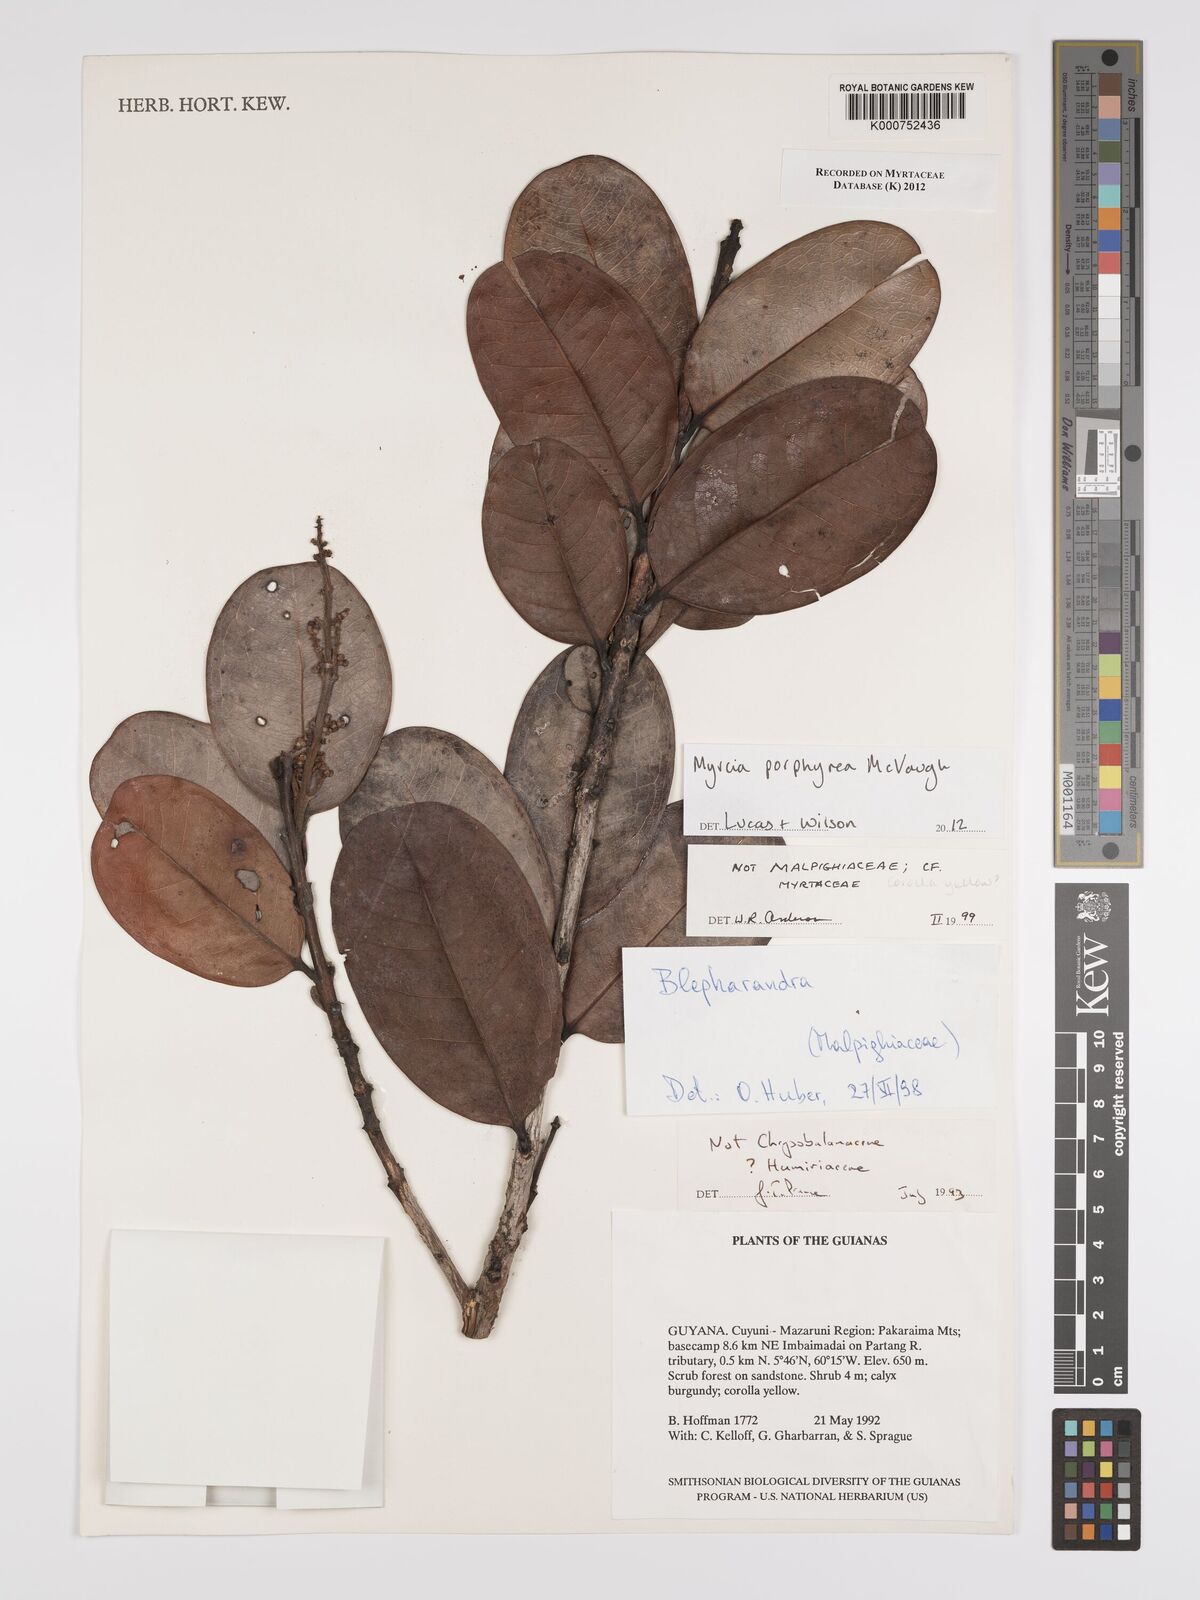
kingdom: Plantae
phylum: Tracheophyta
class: Magnoliopsida
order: Myrtales
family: Myrtaceae
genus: Myrcia
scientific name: Myrcia porphyrea
